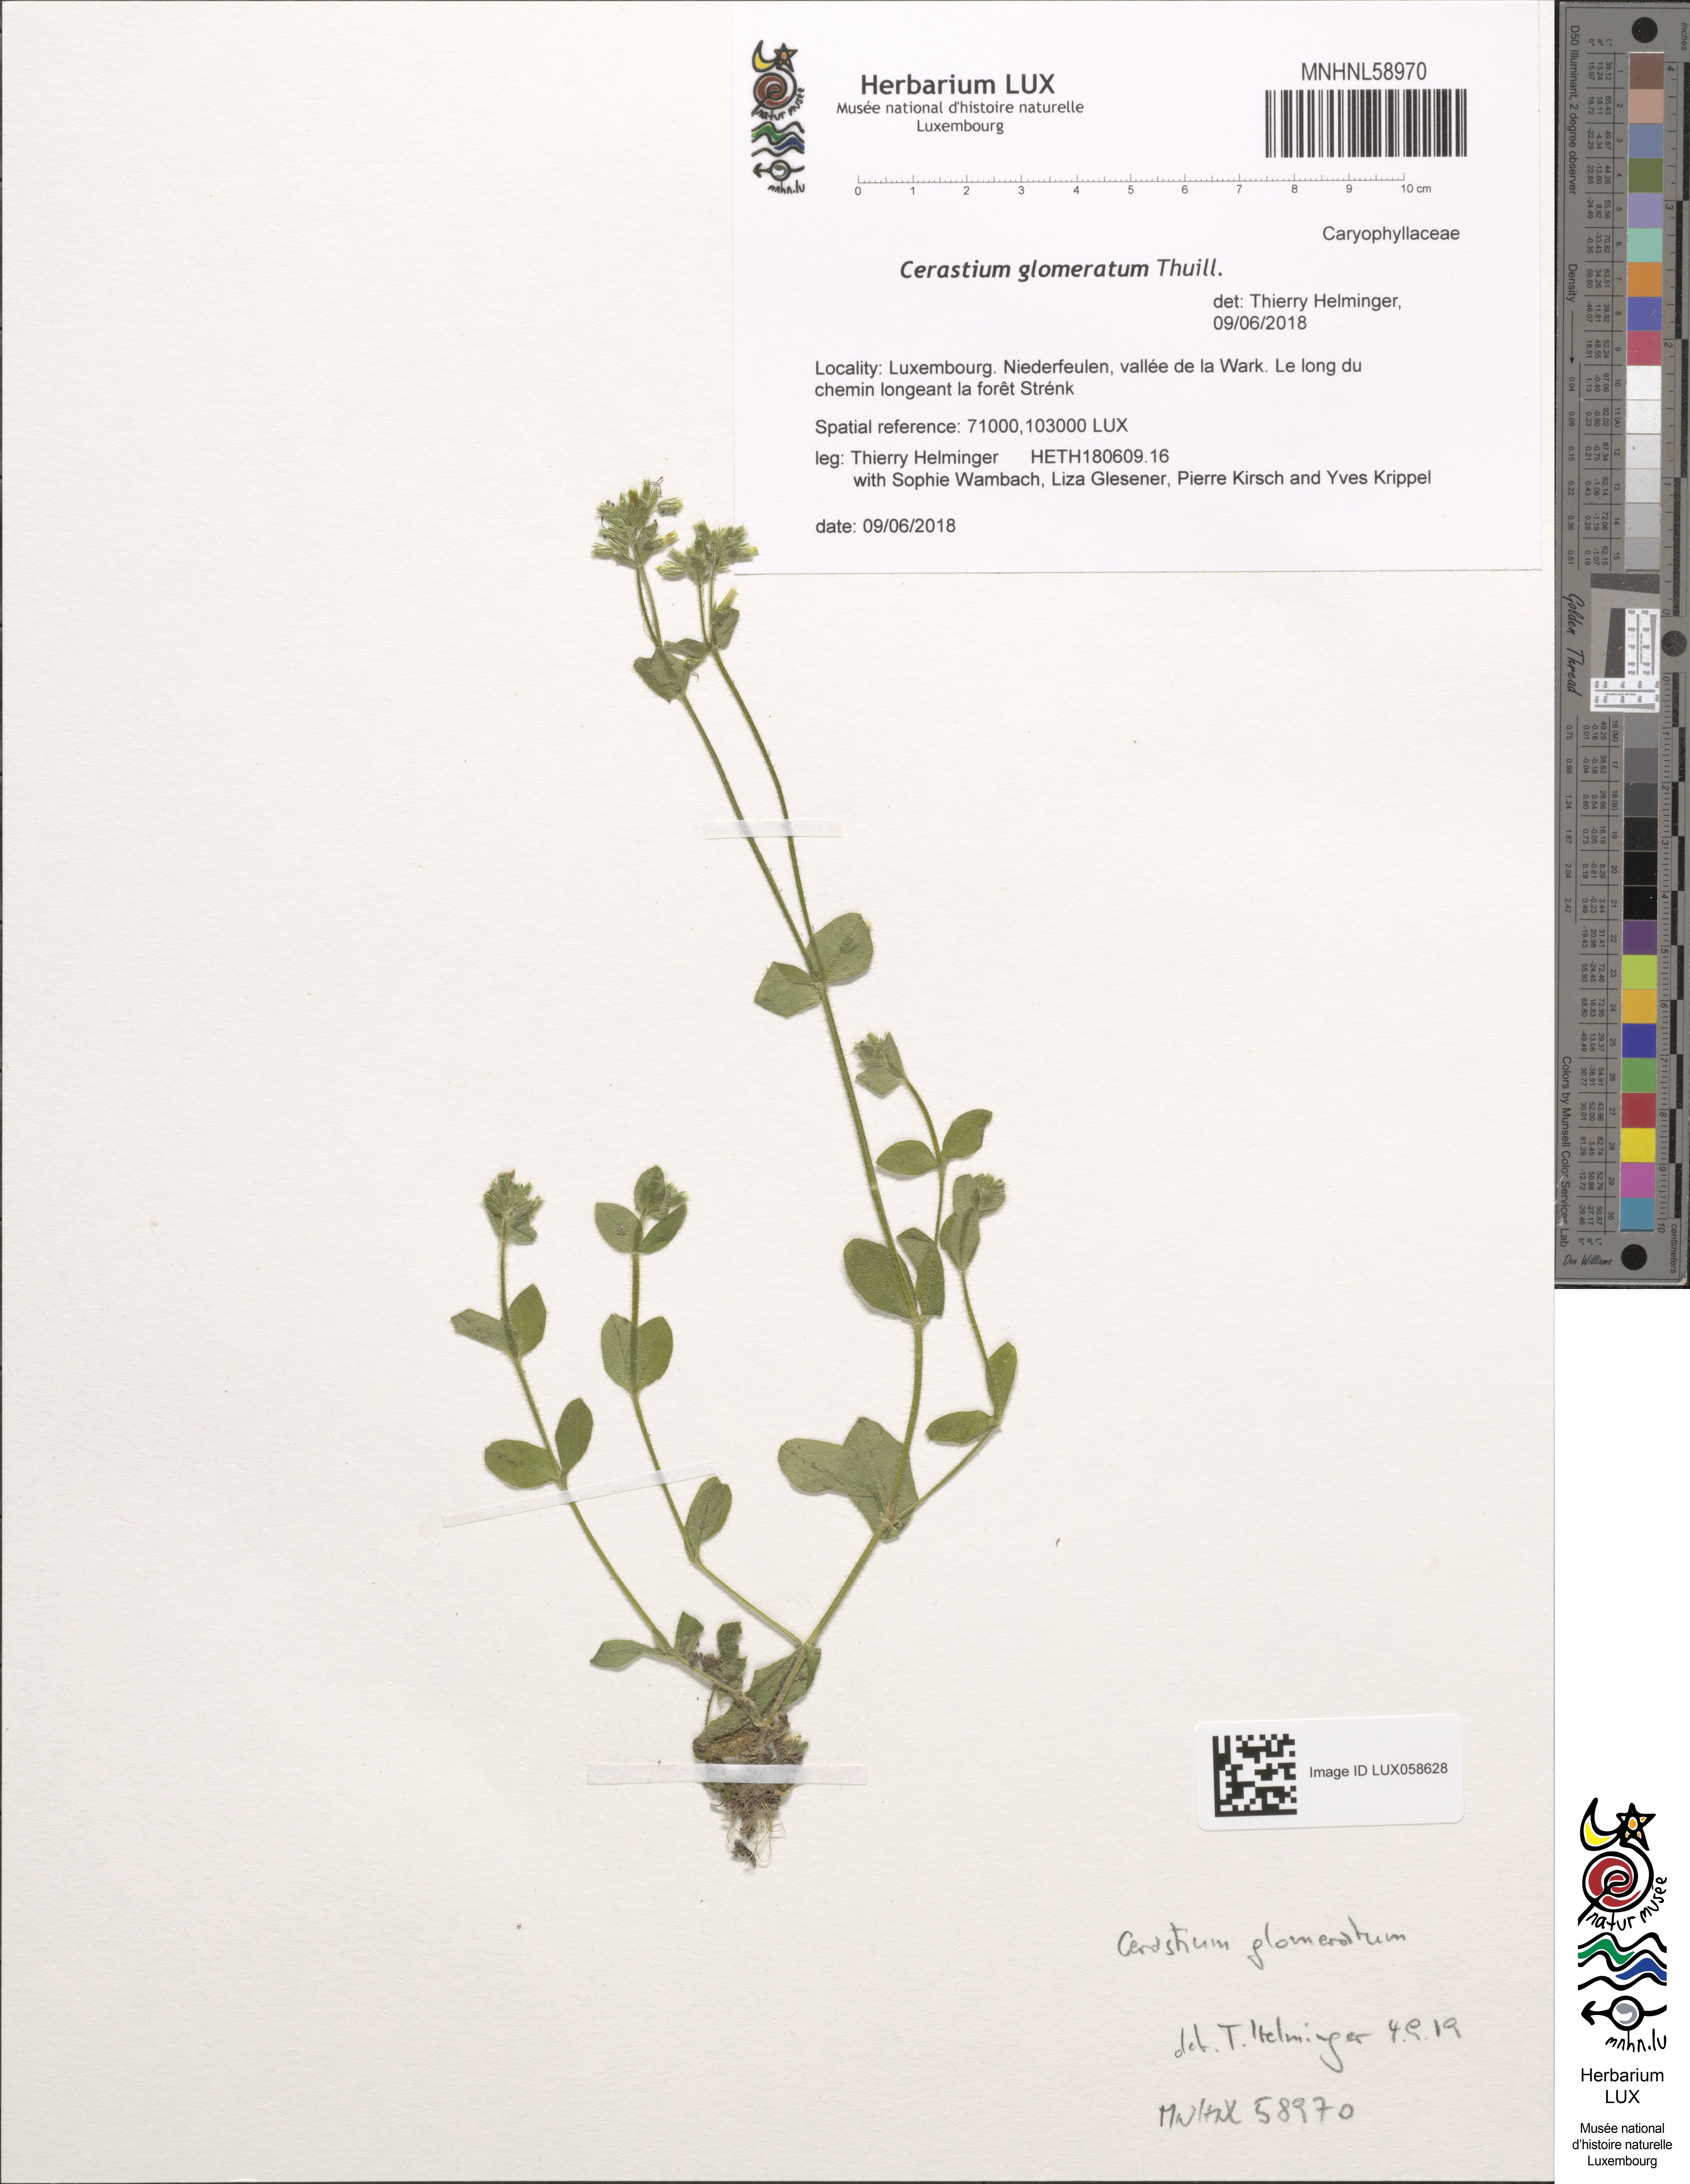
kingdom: Plantae
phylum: Tracheophyta
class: Magnoliopsida
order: Caryophyllales
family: Caryophyllaceae
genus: Cerastium
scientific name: Cerastium glomeratum
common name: Sticky chickweed
